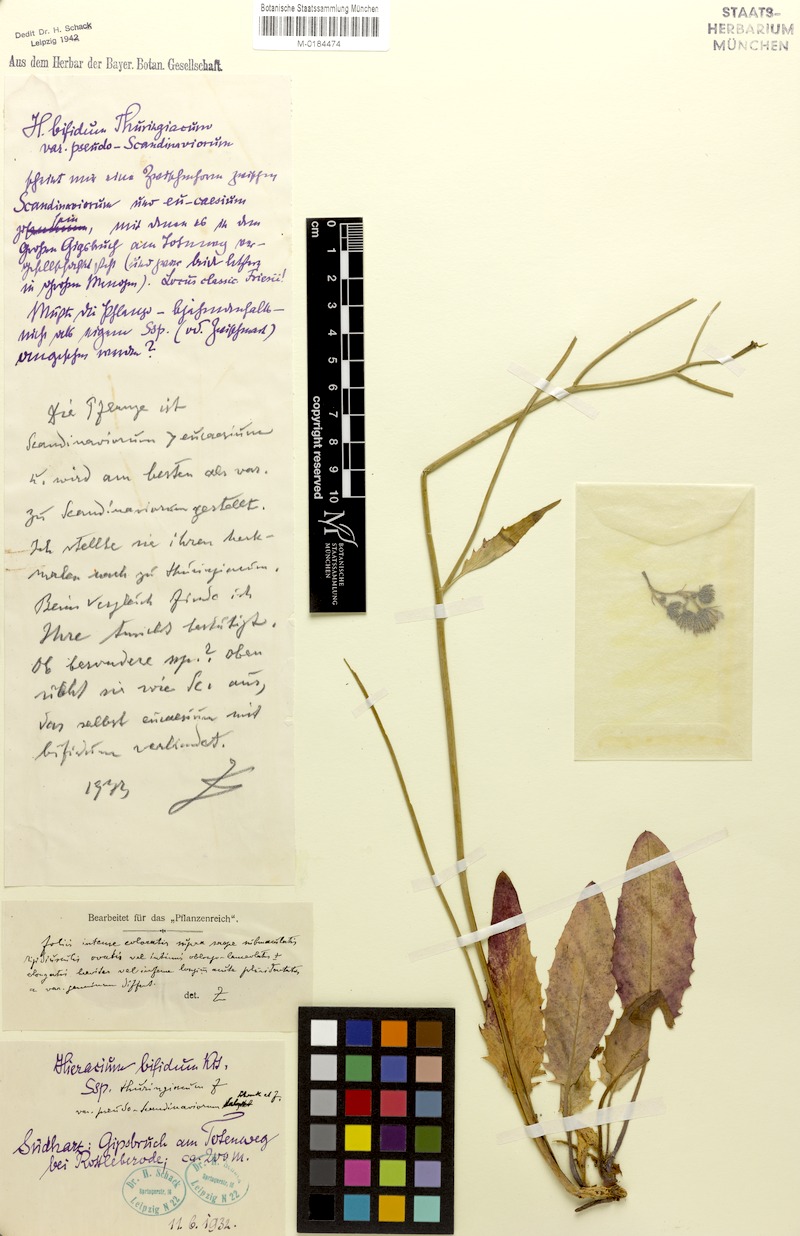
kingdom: Plantae
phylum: Tracheophyta
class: Magnoliopsida
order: Asterales
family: Asteraceae
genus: Hieracium
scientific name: Hieracium bifidum
